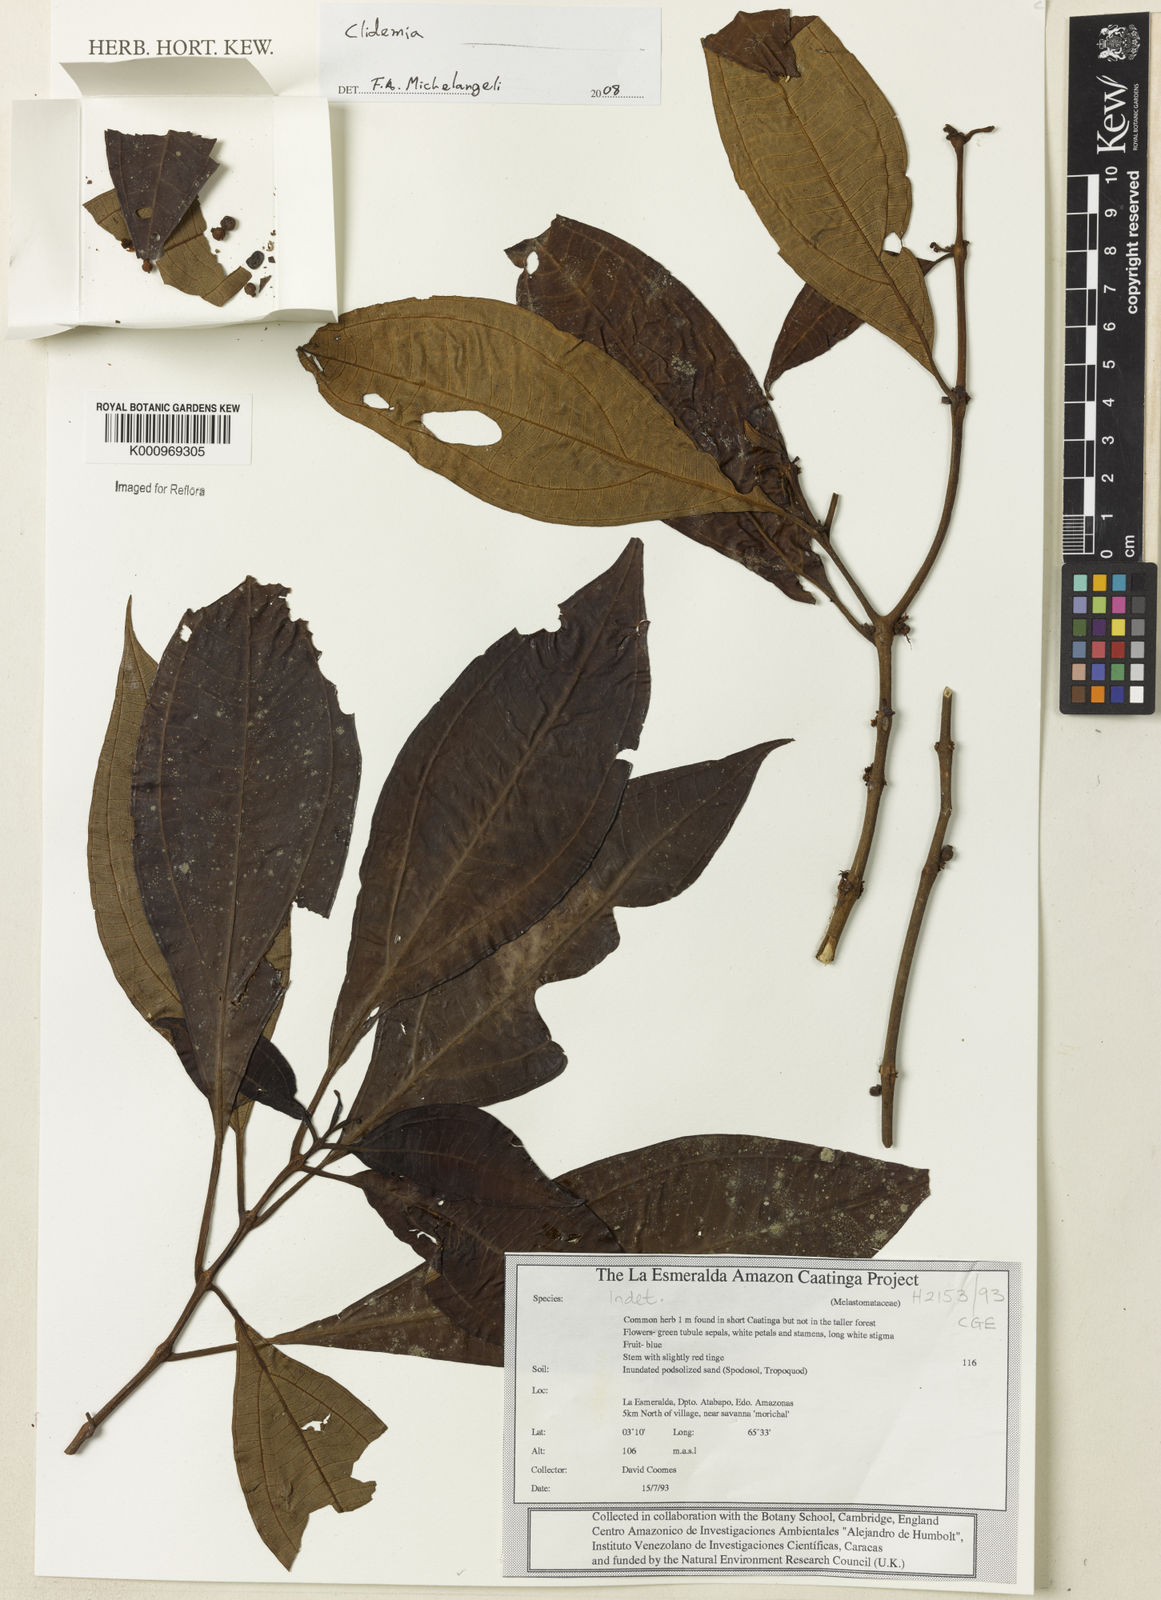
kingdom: Plantae
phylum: Tracheophyta
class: Magnoliopsida
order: Myrtales
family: Melastomataceae
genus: Miconia
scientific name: Miconia
